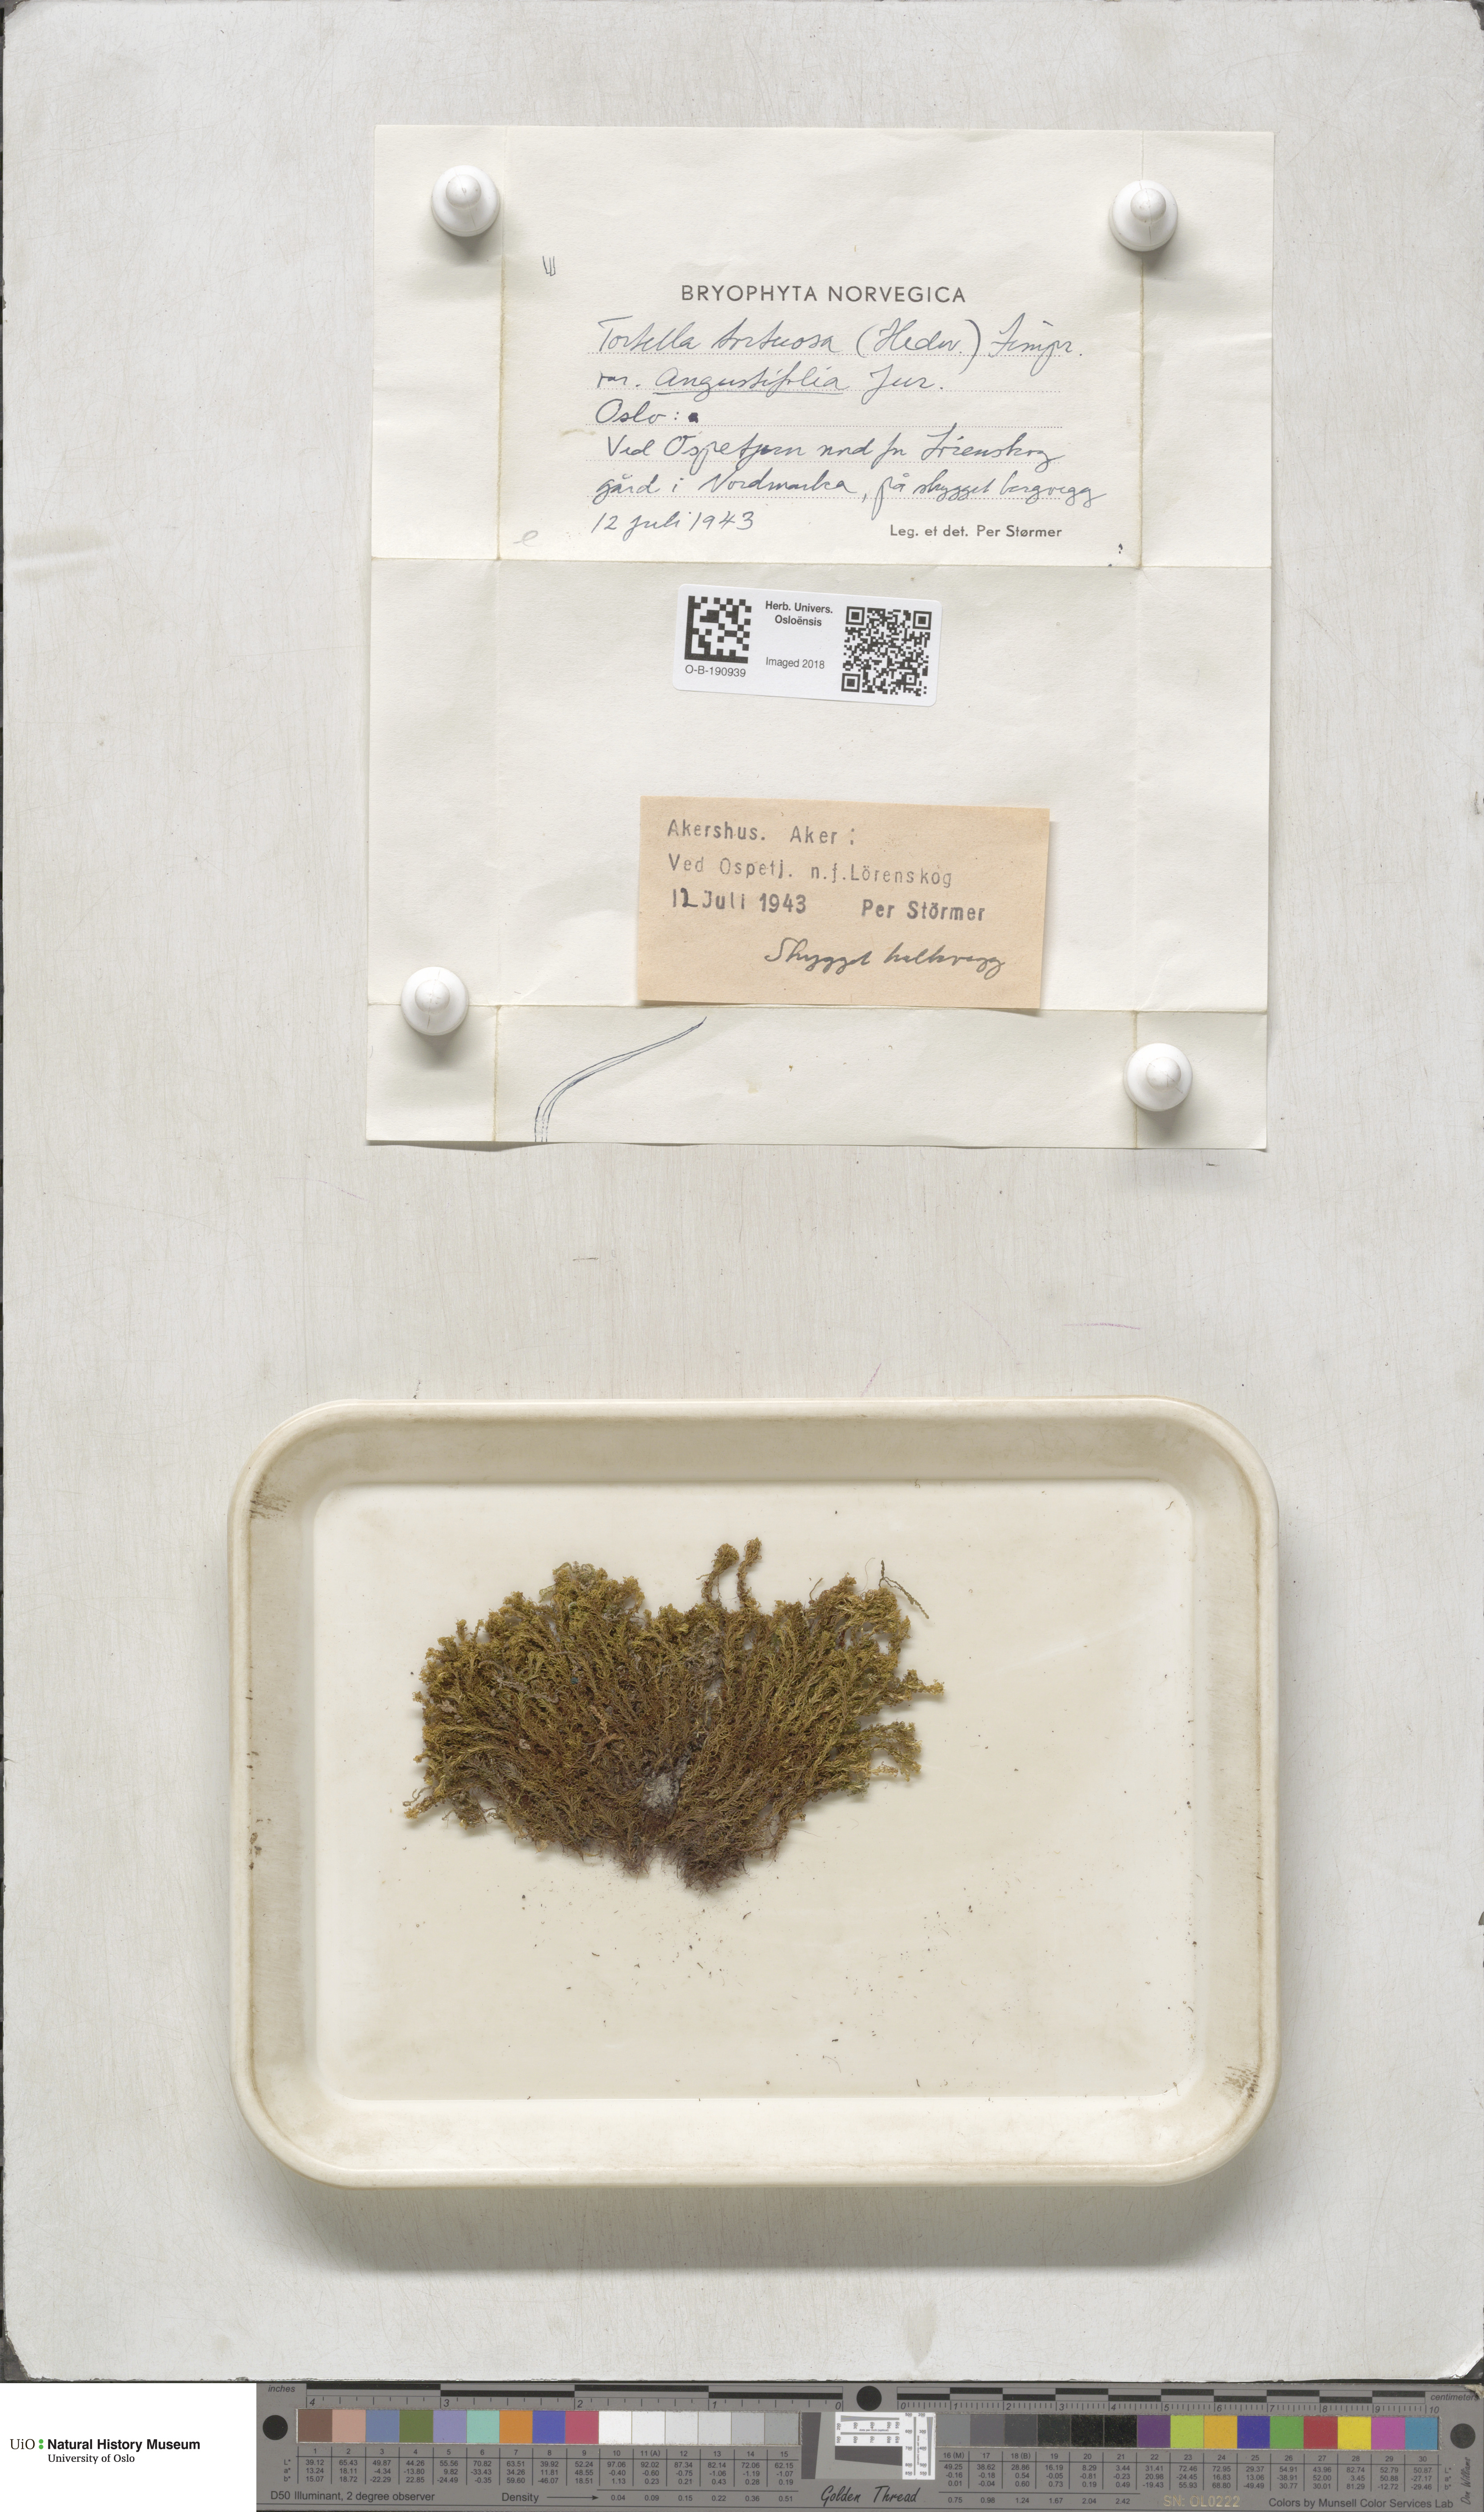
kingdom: Plantae
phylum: Bryophyta
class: Bryopsida
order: Pottiales
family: Pottiaceae
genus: Tortella
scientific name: Tortella
